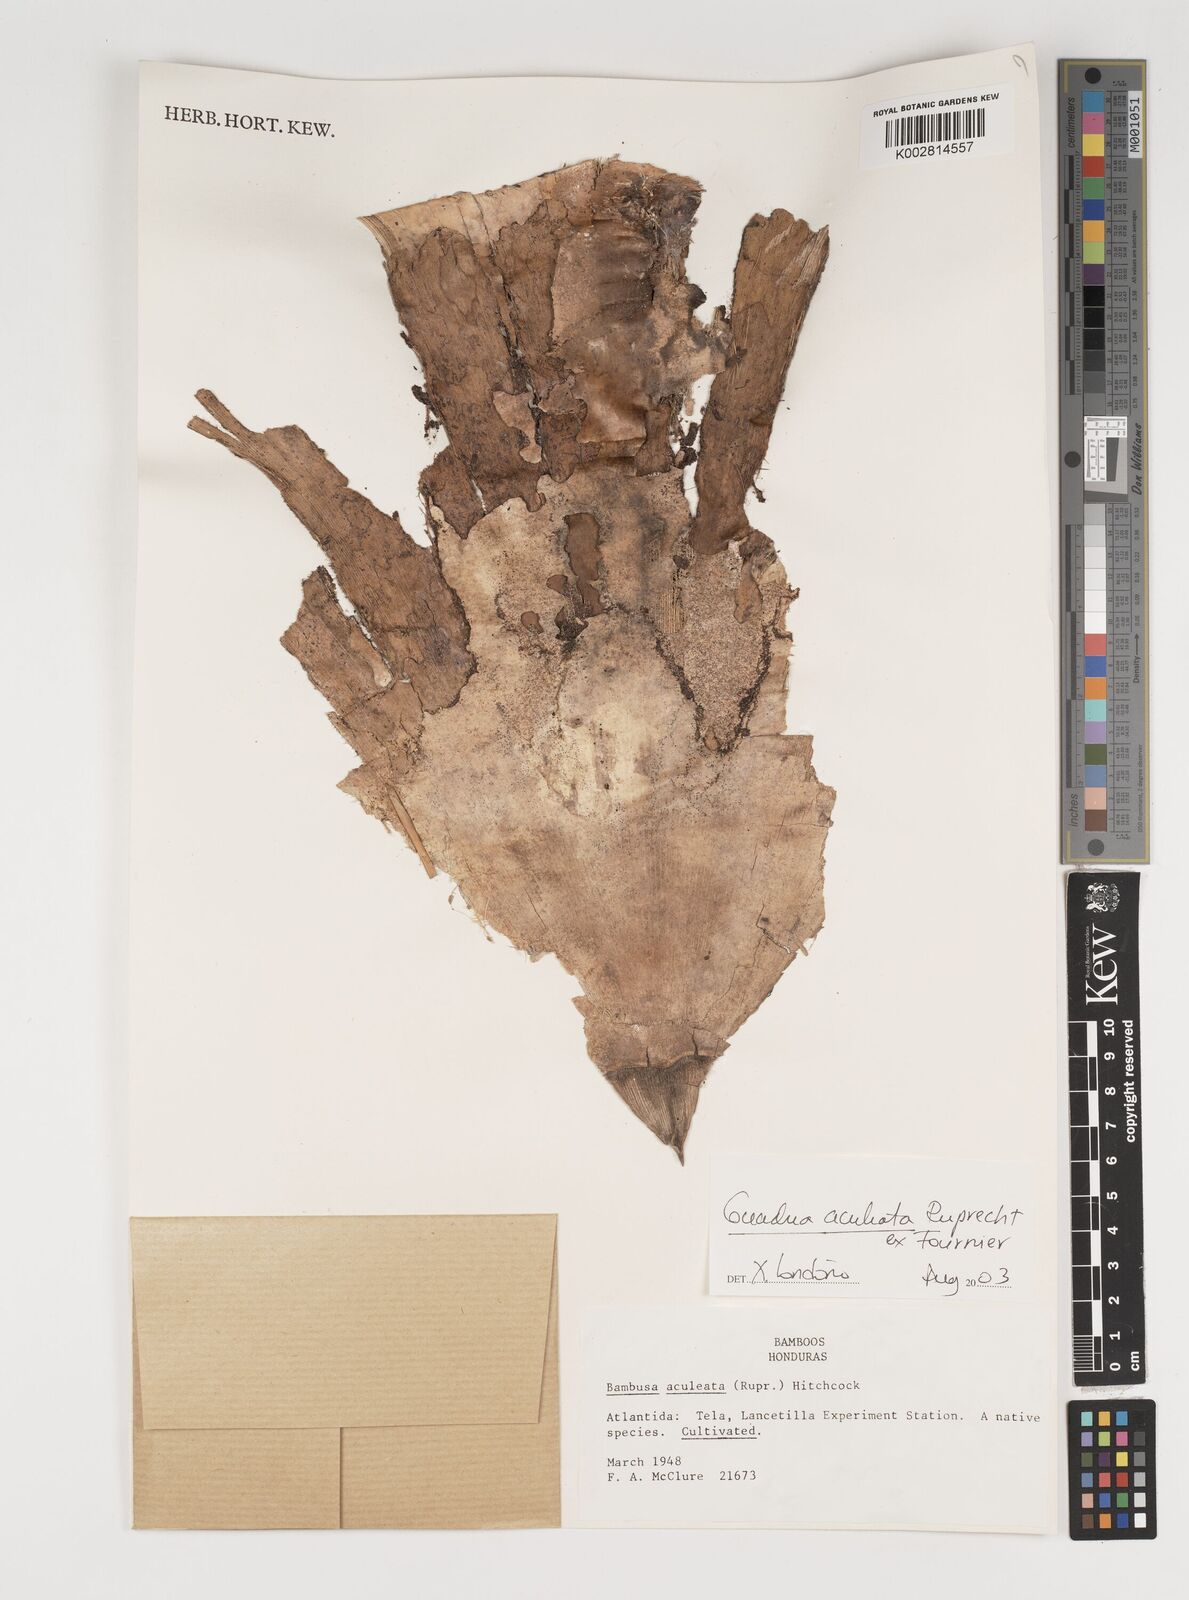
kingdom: Plantae
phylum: Tracheophyta
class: Liliopsida
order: Poales
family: Poaceae
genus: Guadua
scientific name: Guadua aculeata
